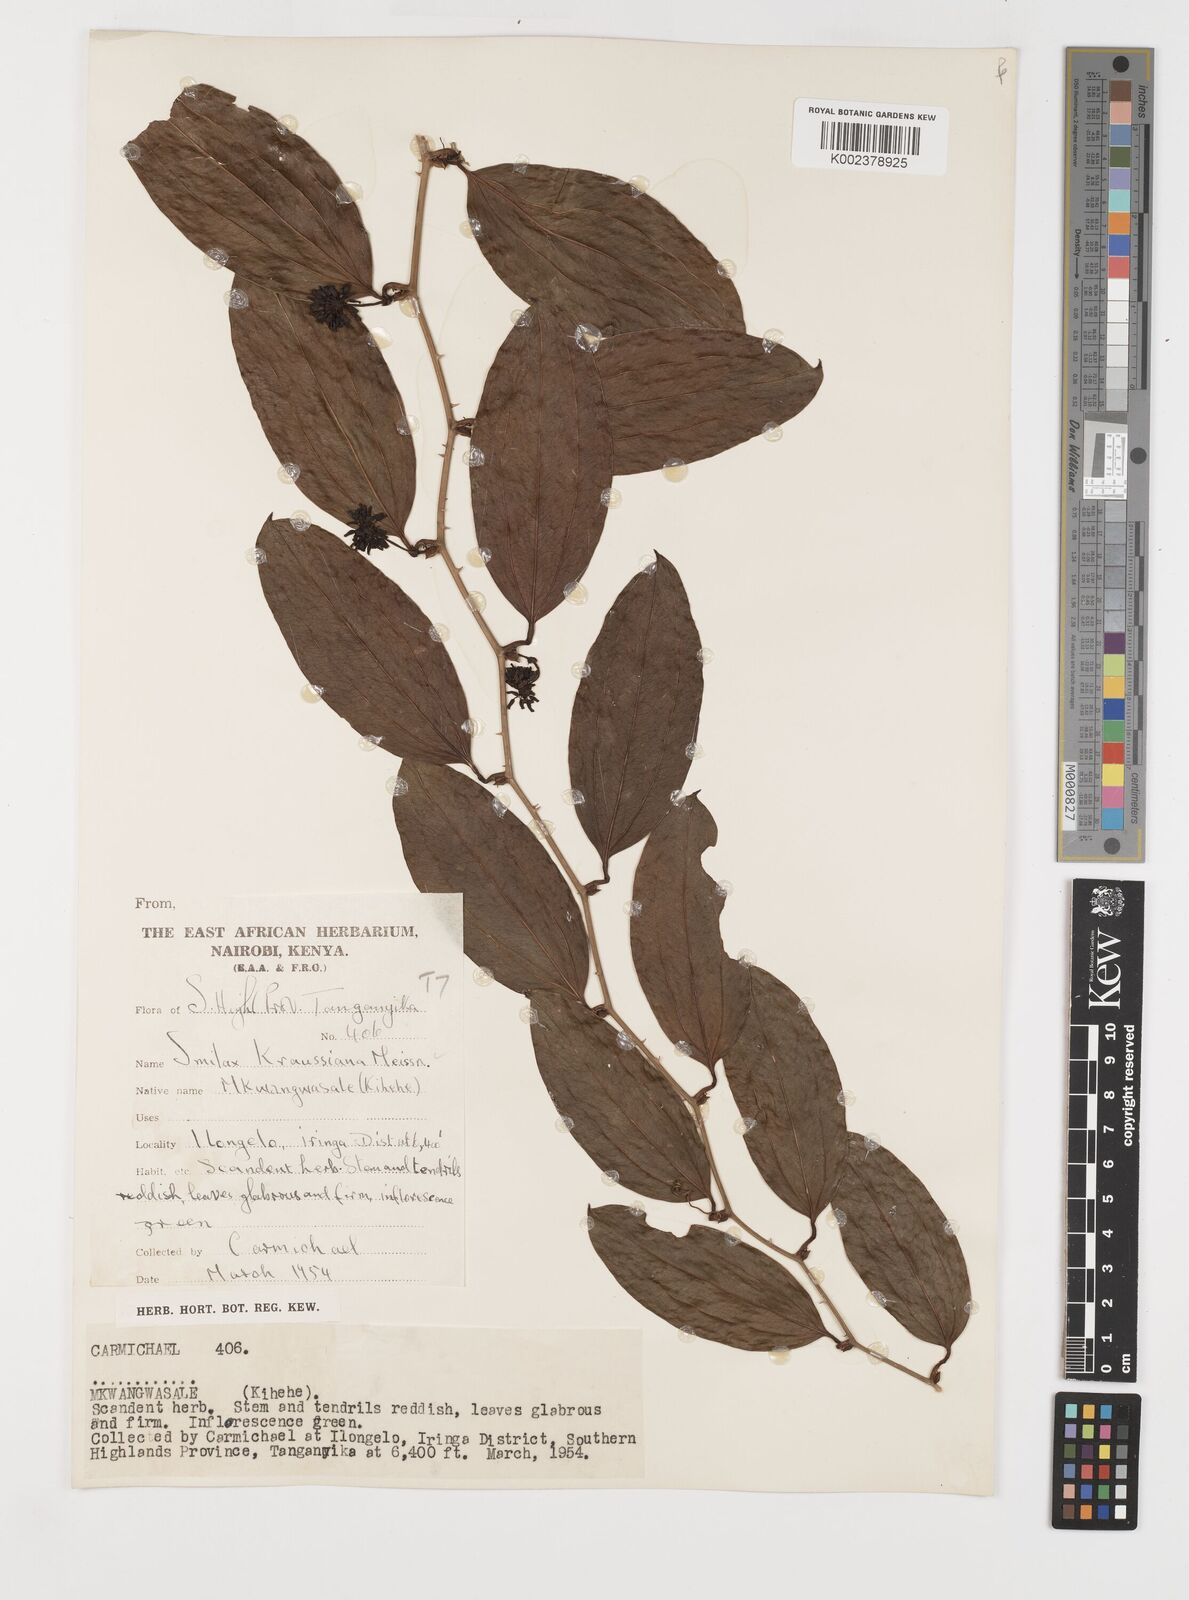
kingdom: Plantae
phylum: Tracheophyta
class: Liliopsida
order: Liliales
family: Smilacaceae
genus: Smilax
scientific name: Smilax anceps
